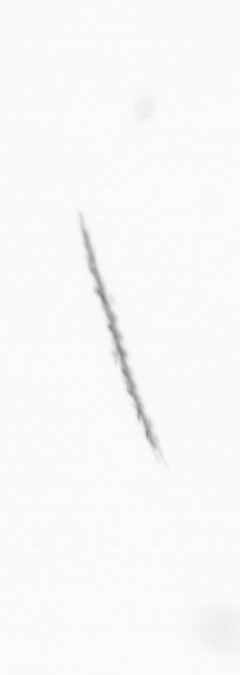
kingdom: Chromista
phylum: Ochrophyta
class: Bacillariophyceae
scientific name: Bacillariophyceae
